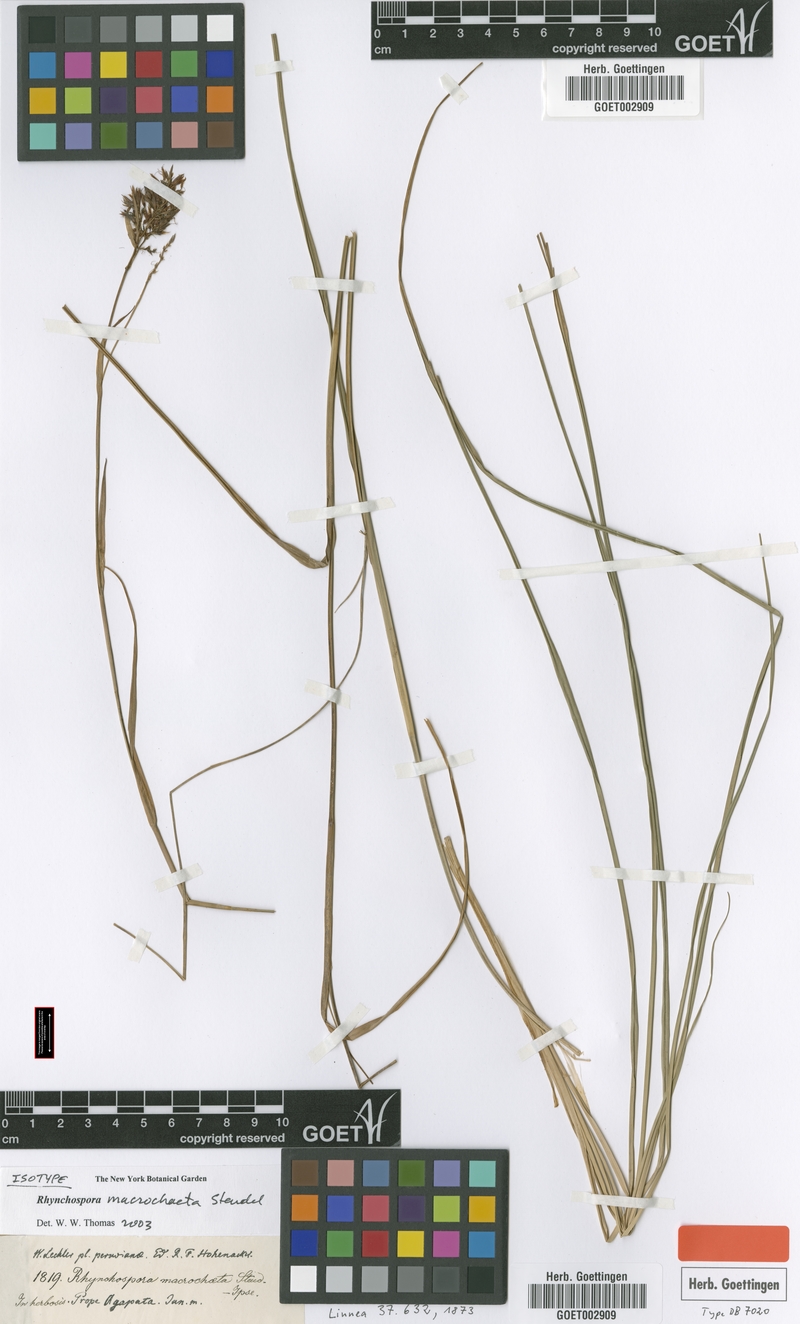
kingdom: Plantae
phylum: Tracheophyta
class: Liliopsida
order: Poales
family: Cyperaceae
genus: Rhynchospora
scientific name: Rhynchospora macrochaeta
